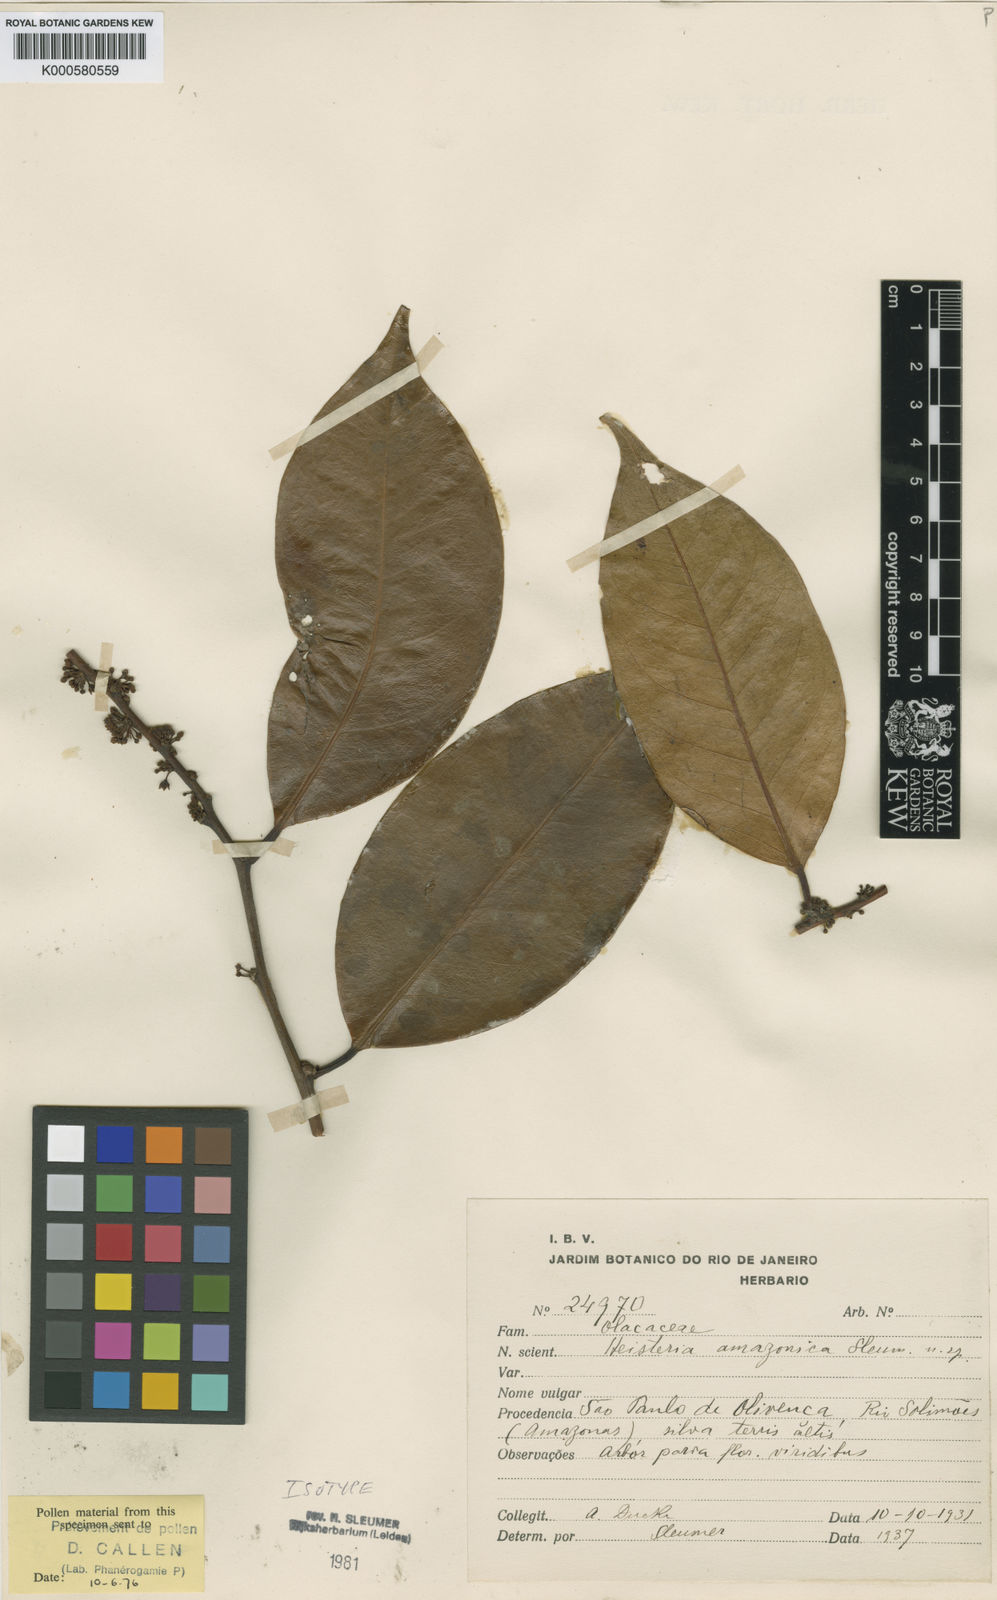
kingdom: Plantae
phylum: Tracheophyta
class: Magnoliopsida
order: Santalales
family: Erythropalaceae
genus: Heisteria
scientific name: Heisteria amazonica
